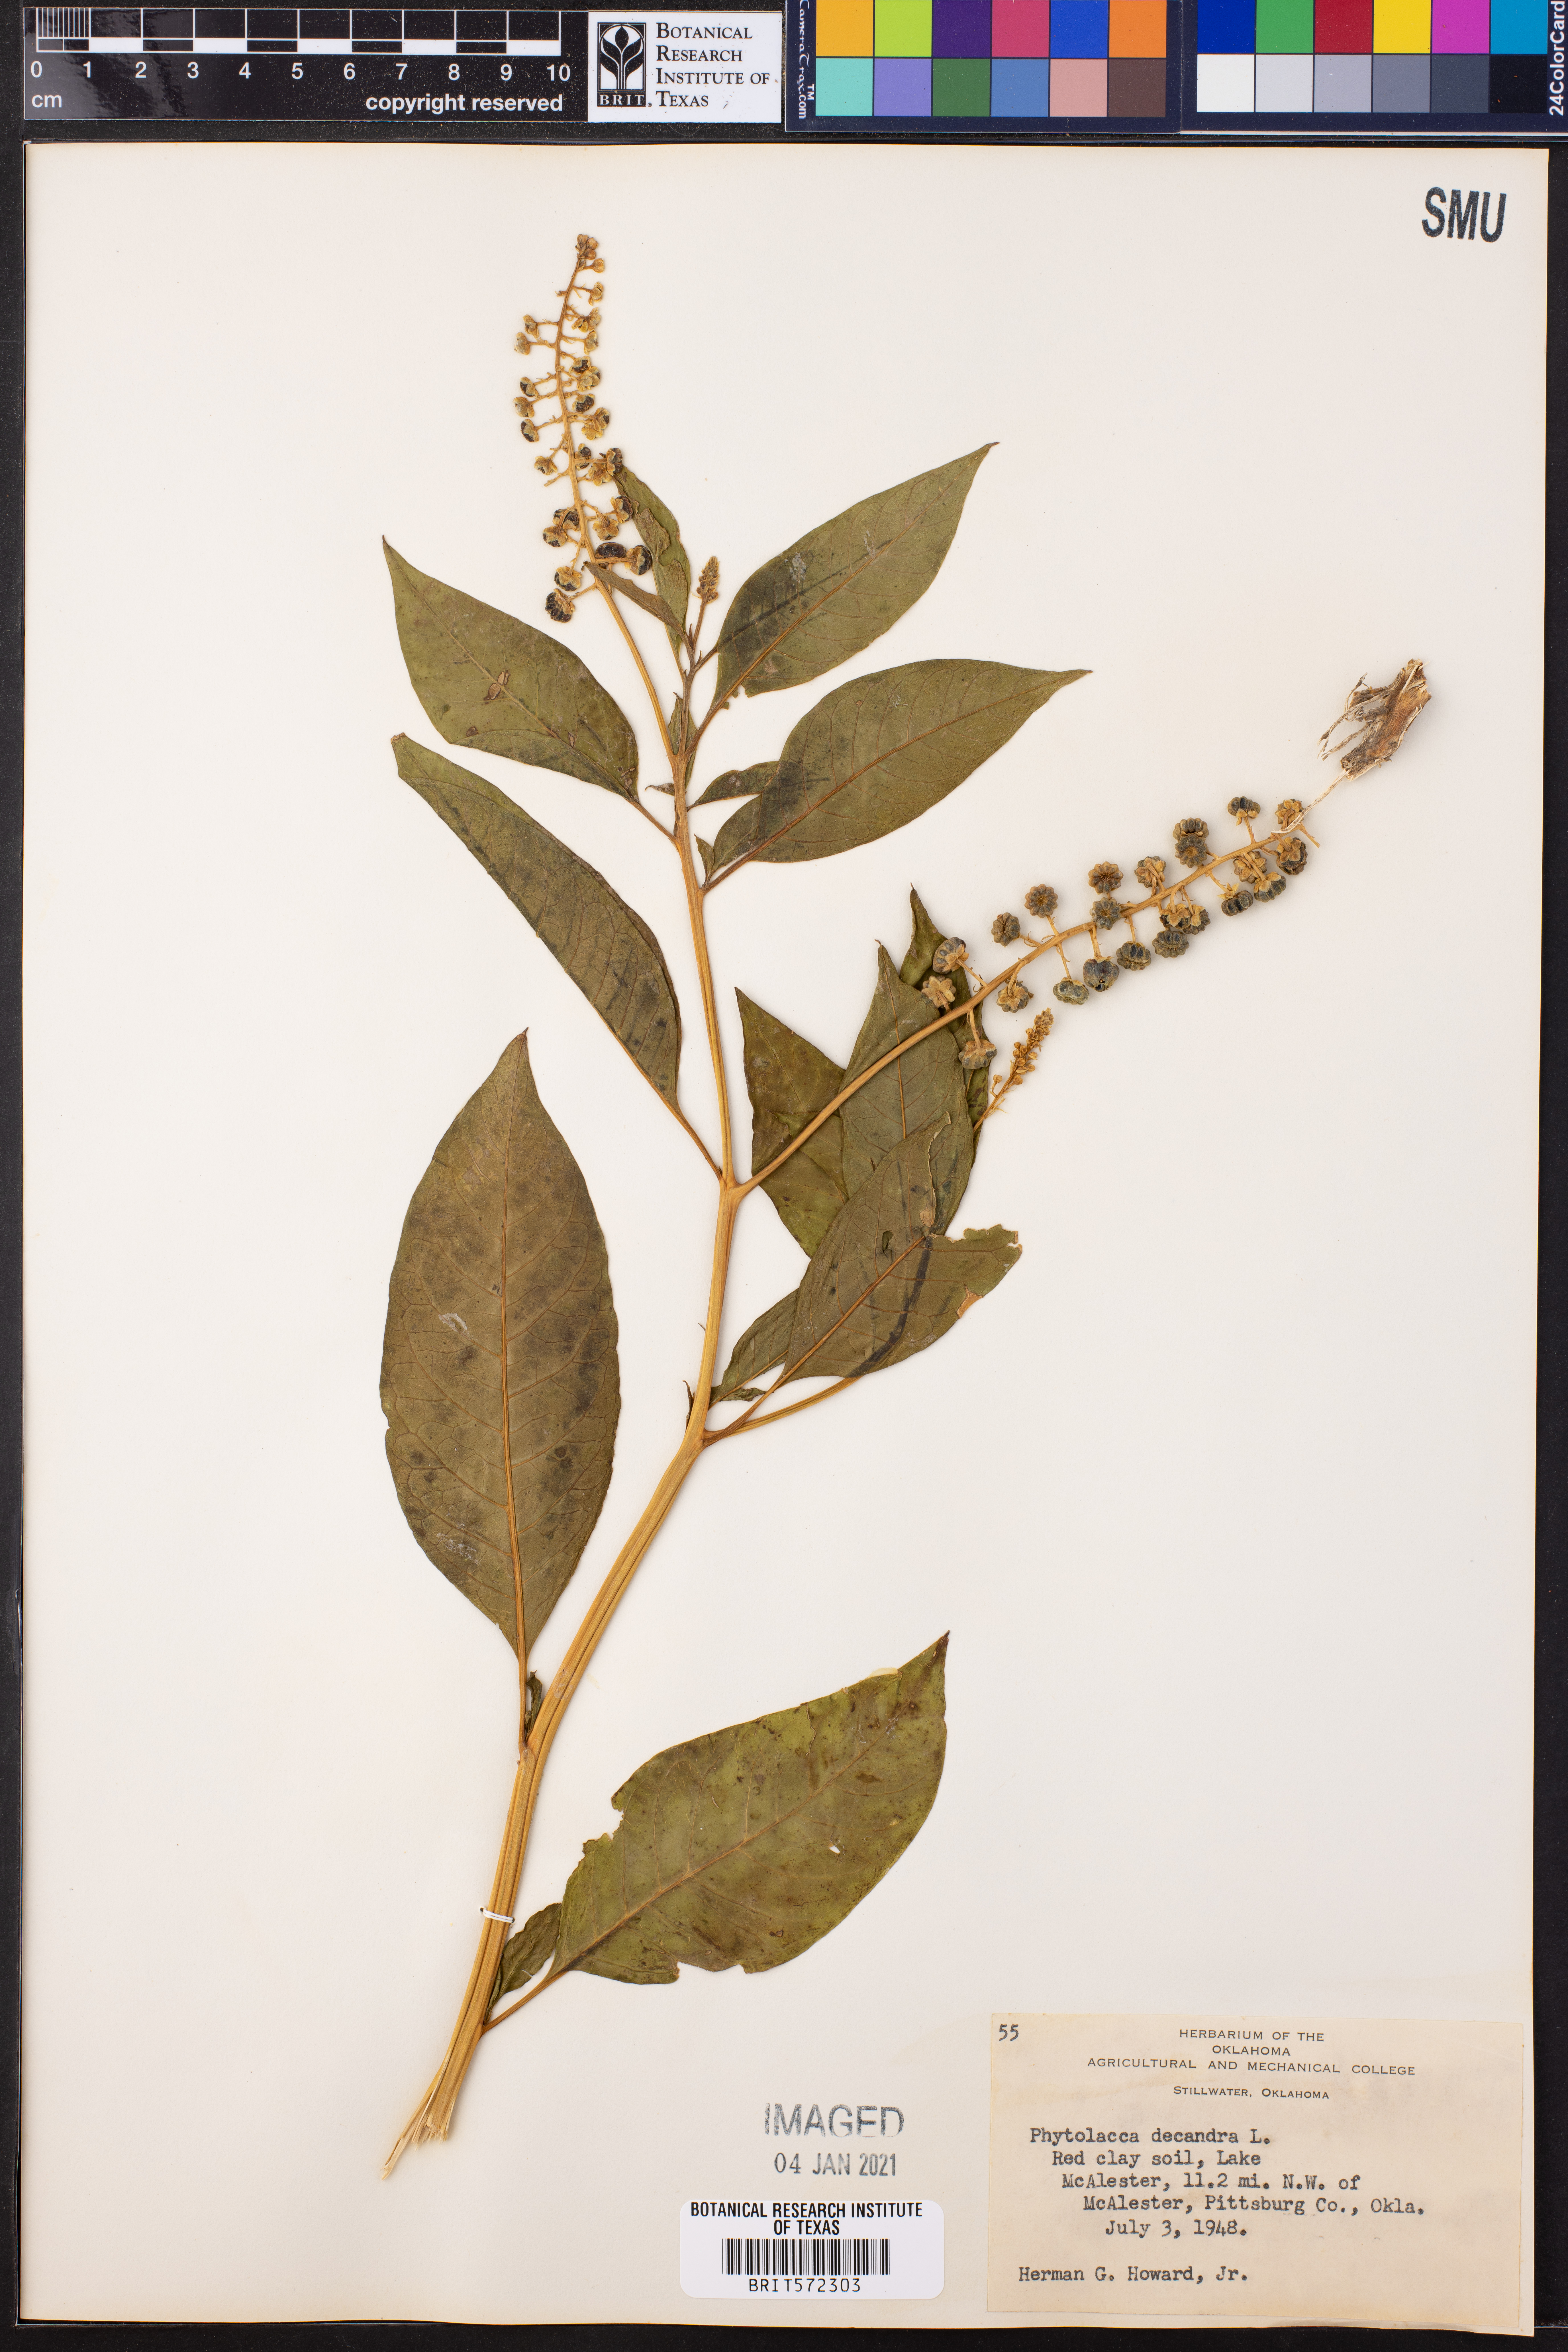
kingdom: Plantae
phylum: Tracheophyta
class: Magnoliopsida
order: Caryophyllales
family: Phytolaccaceae
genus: Phytolacca
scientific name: Phytolacca americana
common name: American pokeweed
